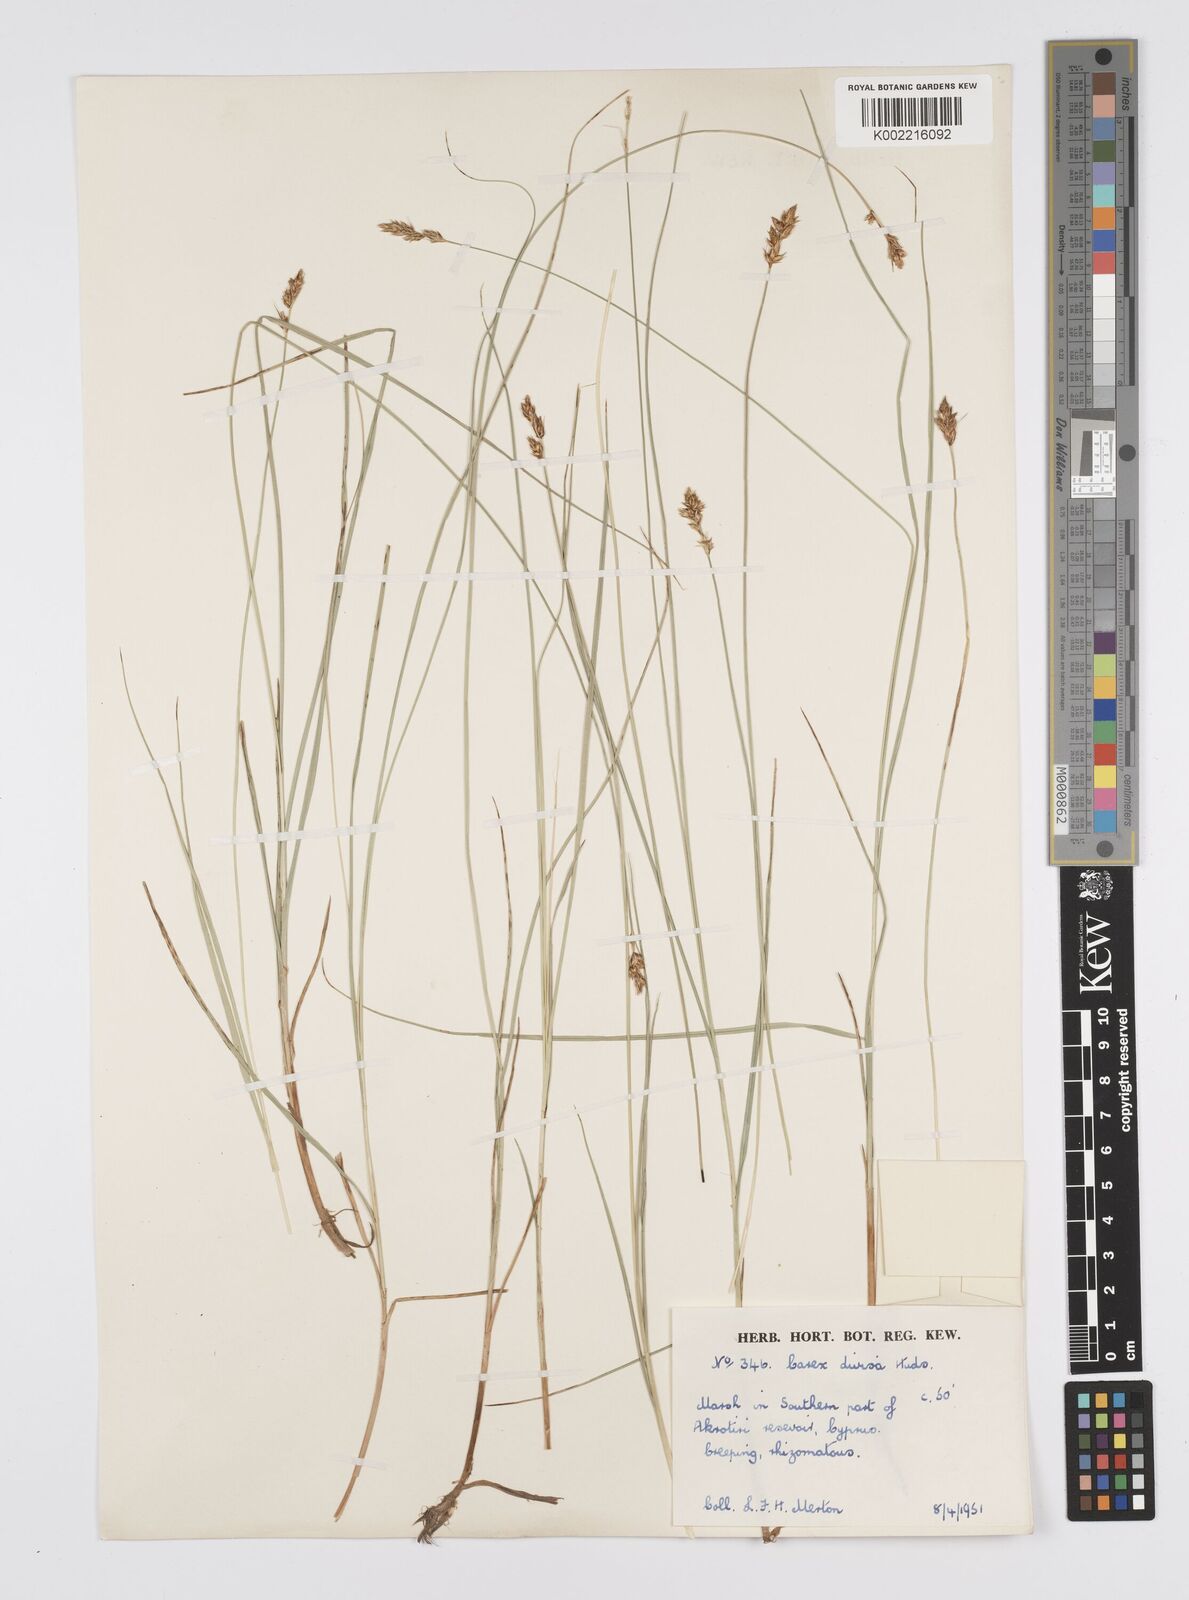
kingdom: Plantae
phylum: Tracheophyta
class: Liliopsida
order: Poales
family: Cyperaceae
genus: Carex
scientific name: Carex divisa
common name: Divided sedge
